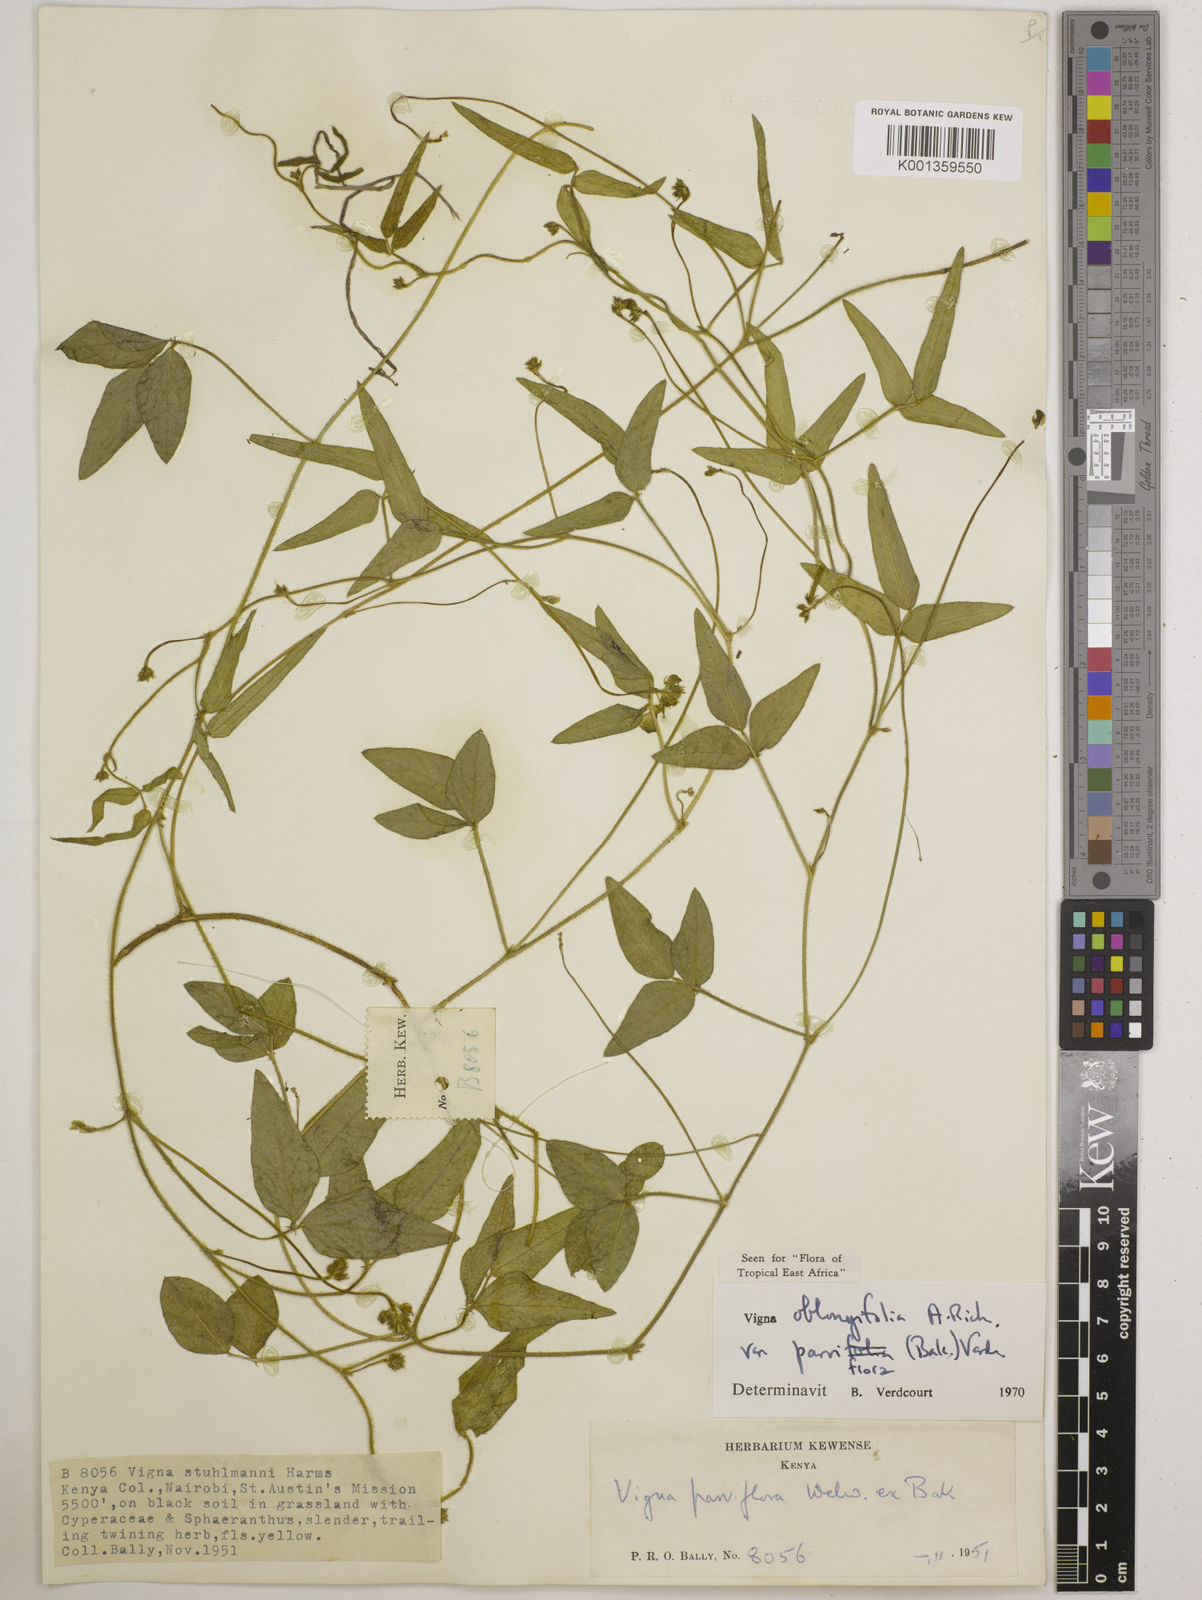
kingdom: Plantae
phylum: Tracheophyta
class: Magnoliopsida
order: Fabales
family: Fabaceae
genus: Vigna
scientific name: Vigna
